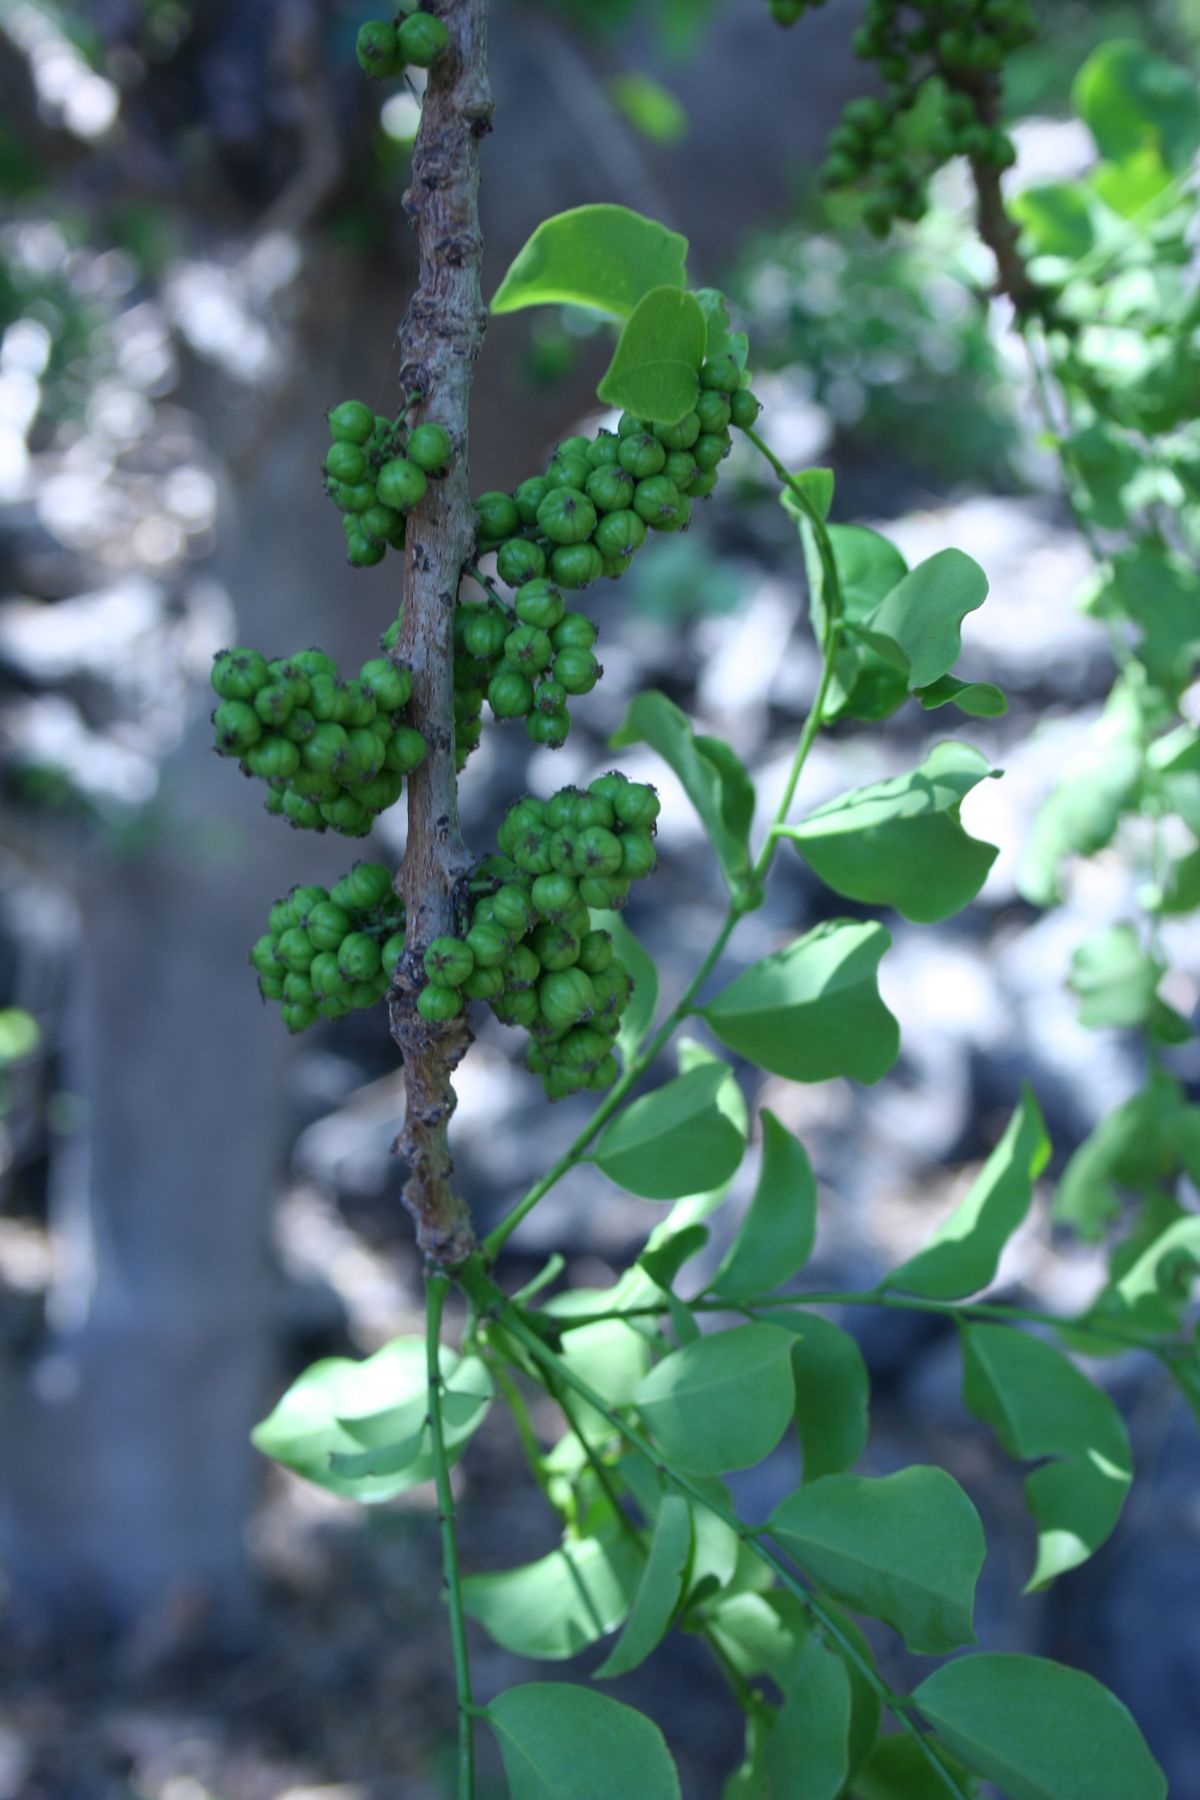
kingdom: Plantae
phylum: Tracheophyta
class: Magnoliopsida
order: Malpighiales
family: Phyllanthaceae
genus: Phyllanthus
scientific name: Phyllanthus elsiae
